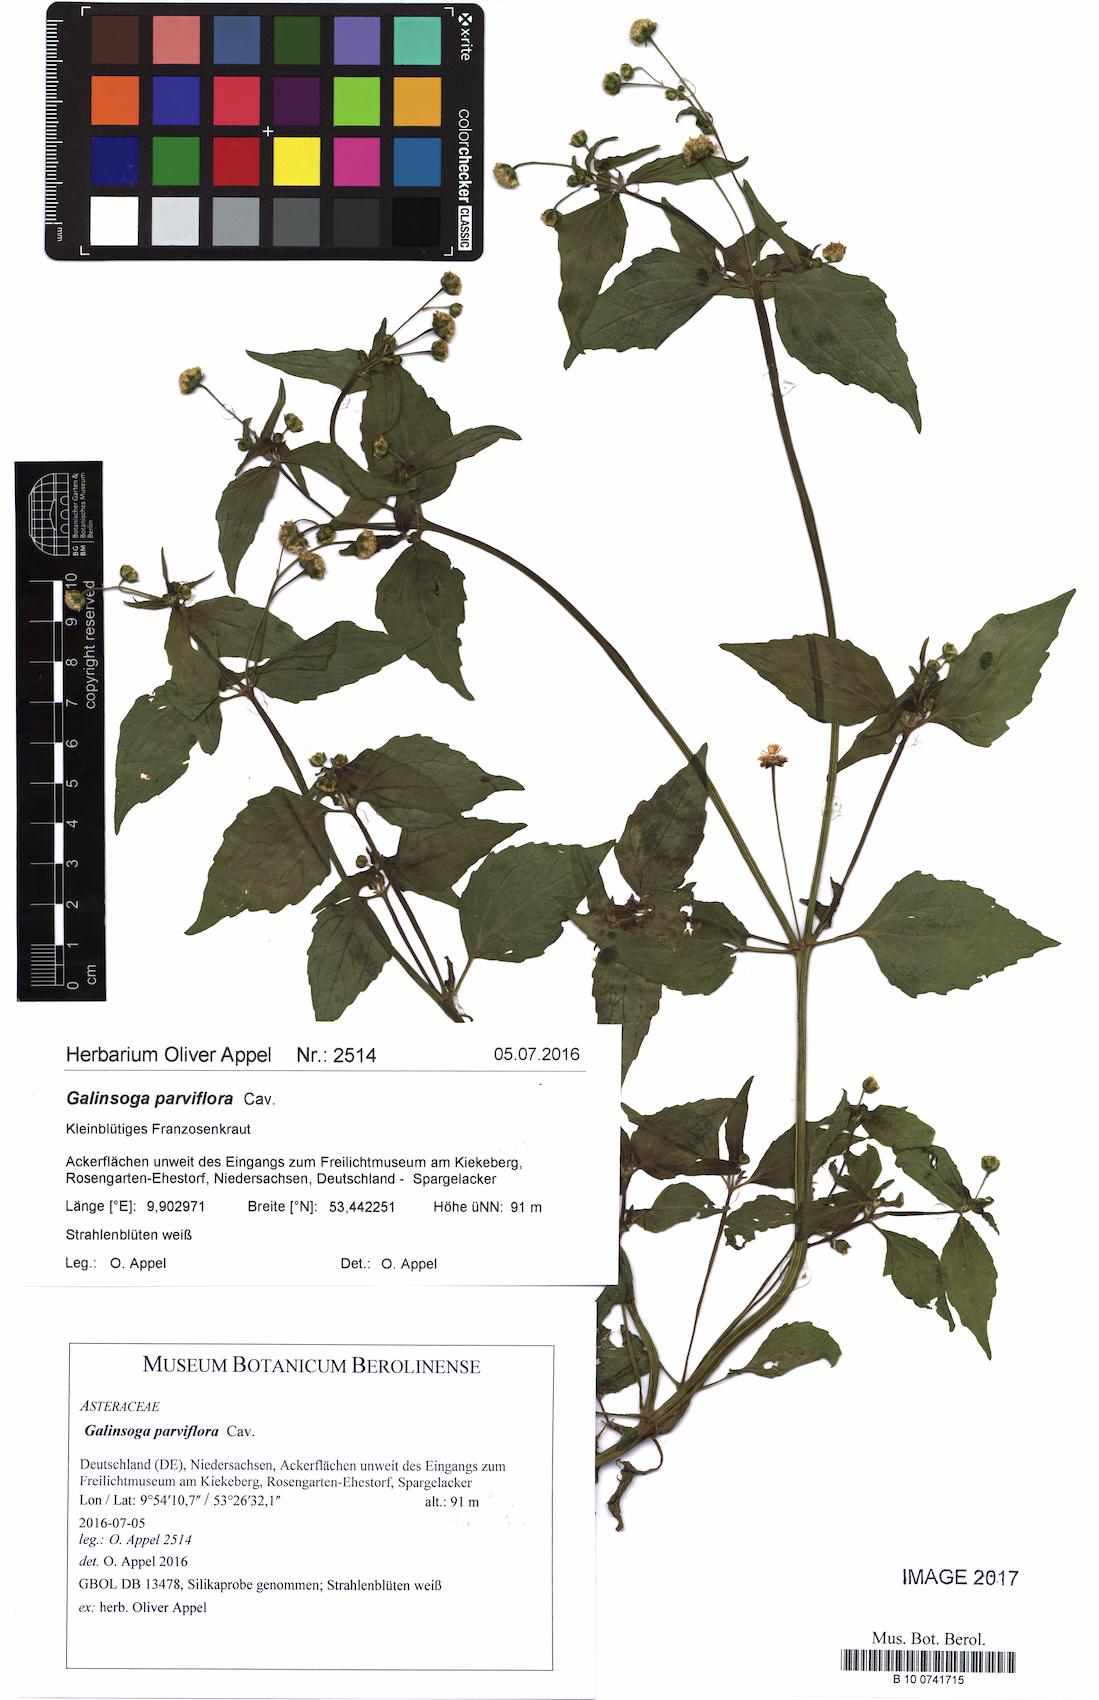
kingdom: Plantae
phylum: Tracheophyta
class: Magnoliopsida
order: Asterales
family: Asteraceae
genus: Galinsoga
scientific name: Galinsoga parviflora
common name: Gallant soldier
